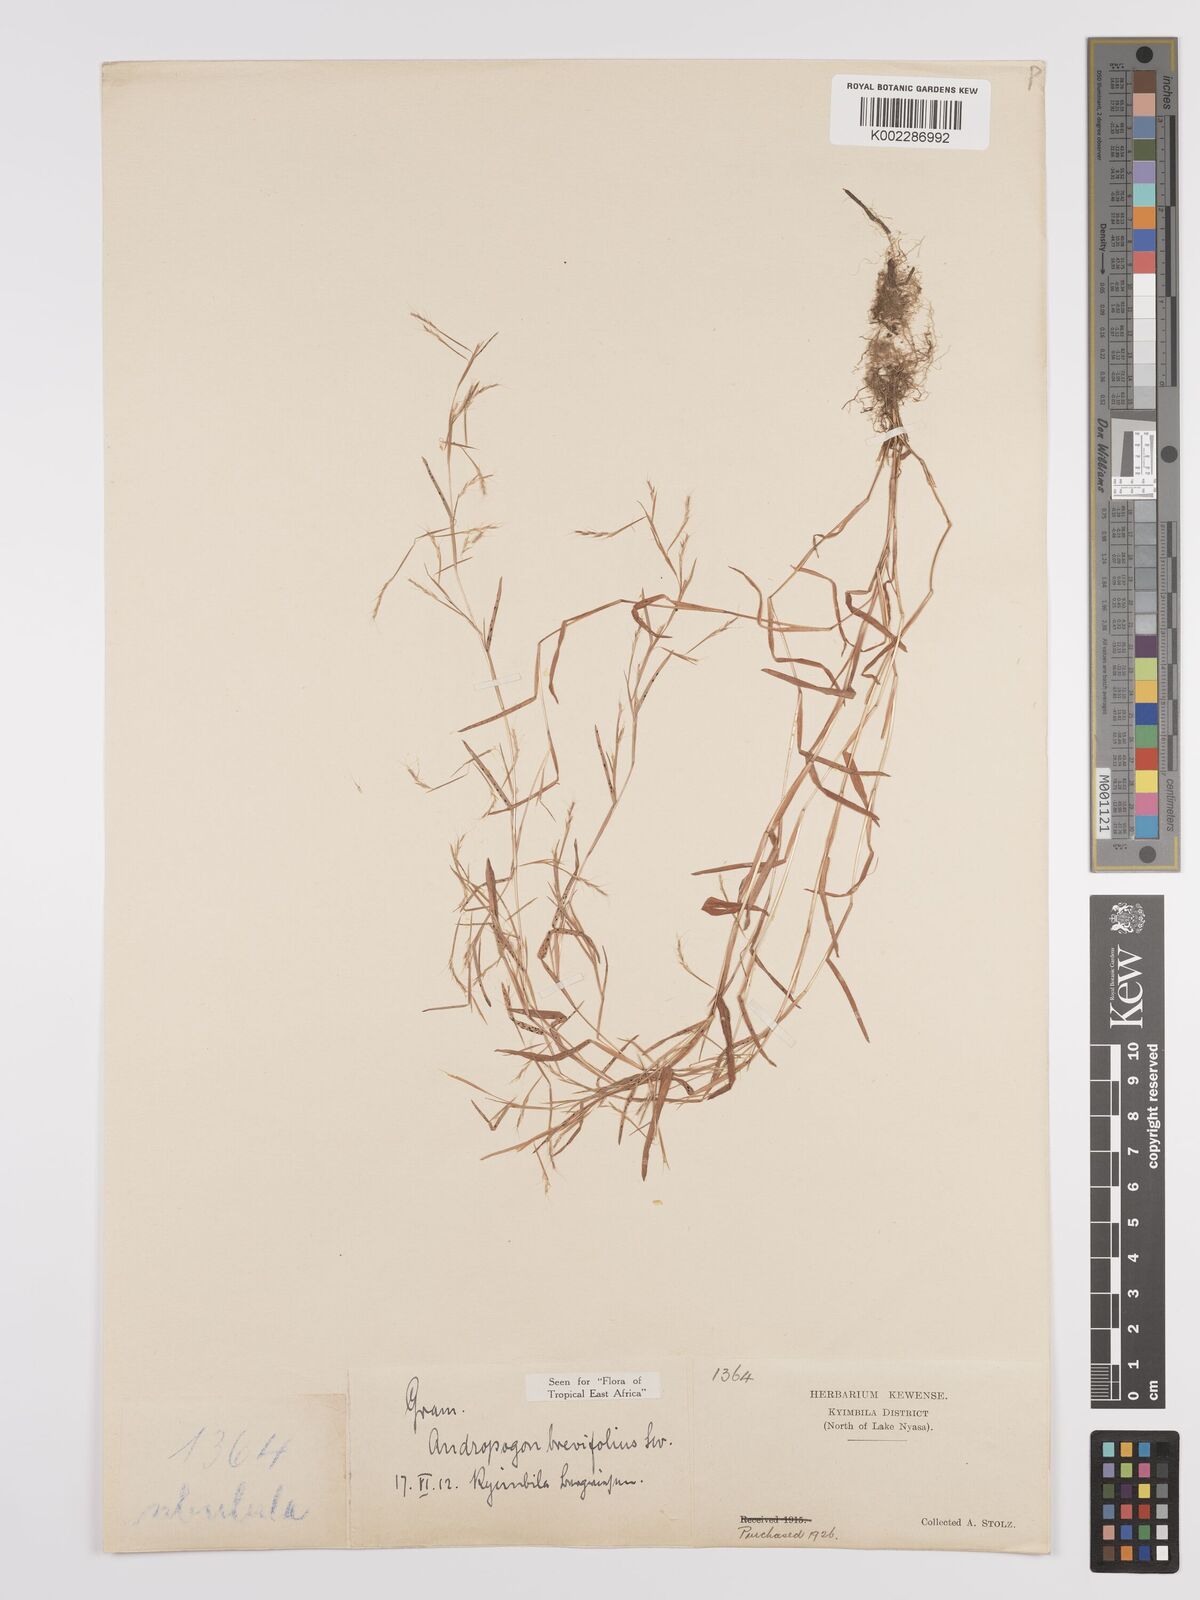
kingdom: Plantae
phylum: Tracheophyta
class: Liliopsida
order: Poales
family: Poaceae
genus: Schizachyrium
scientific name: Schizachyrium brevifolium
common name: Serillo dulce
